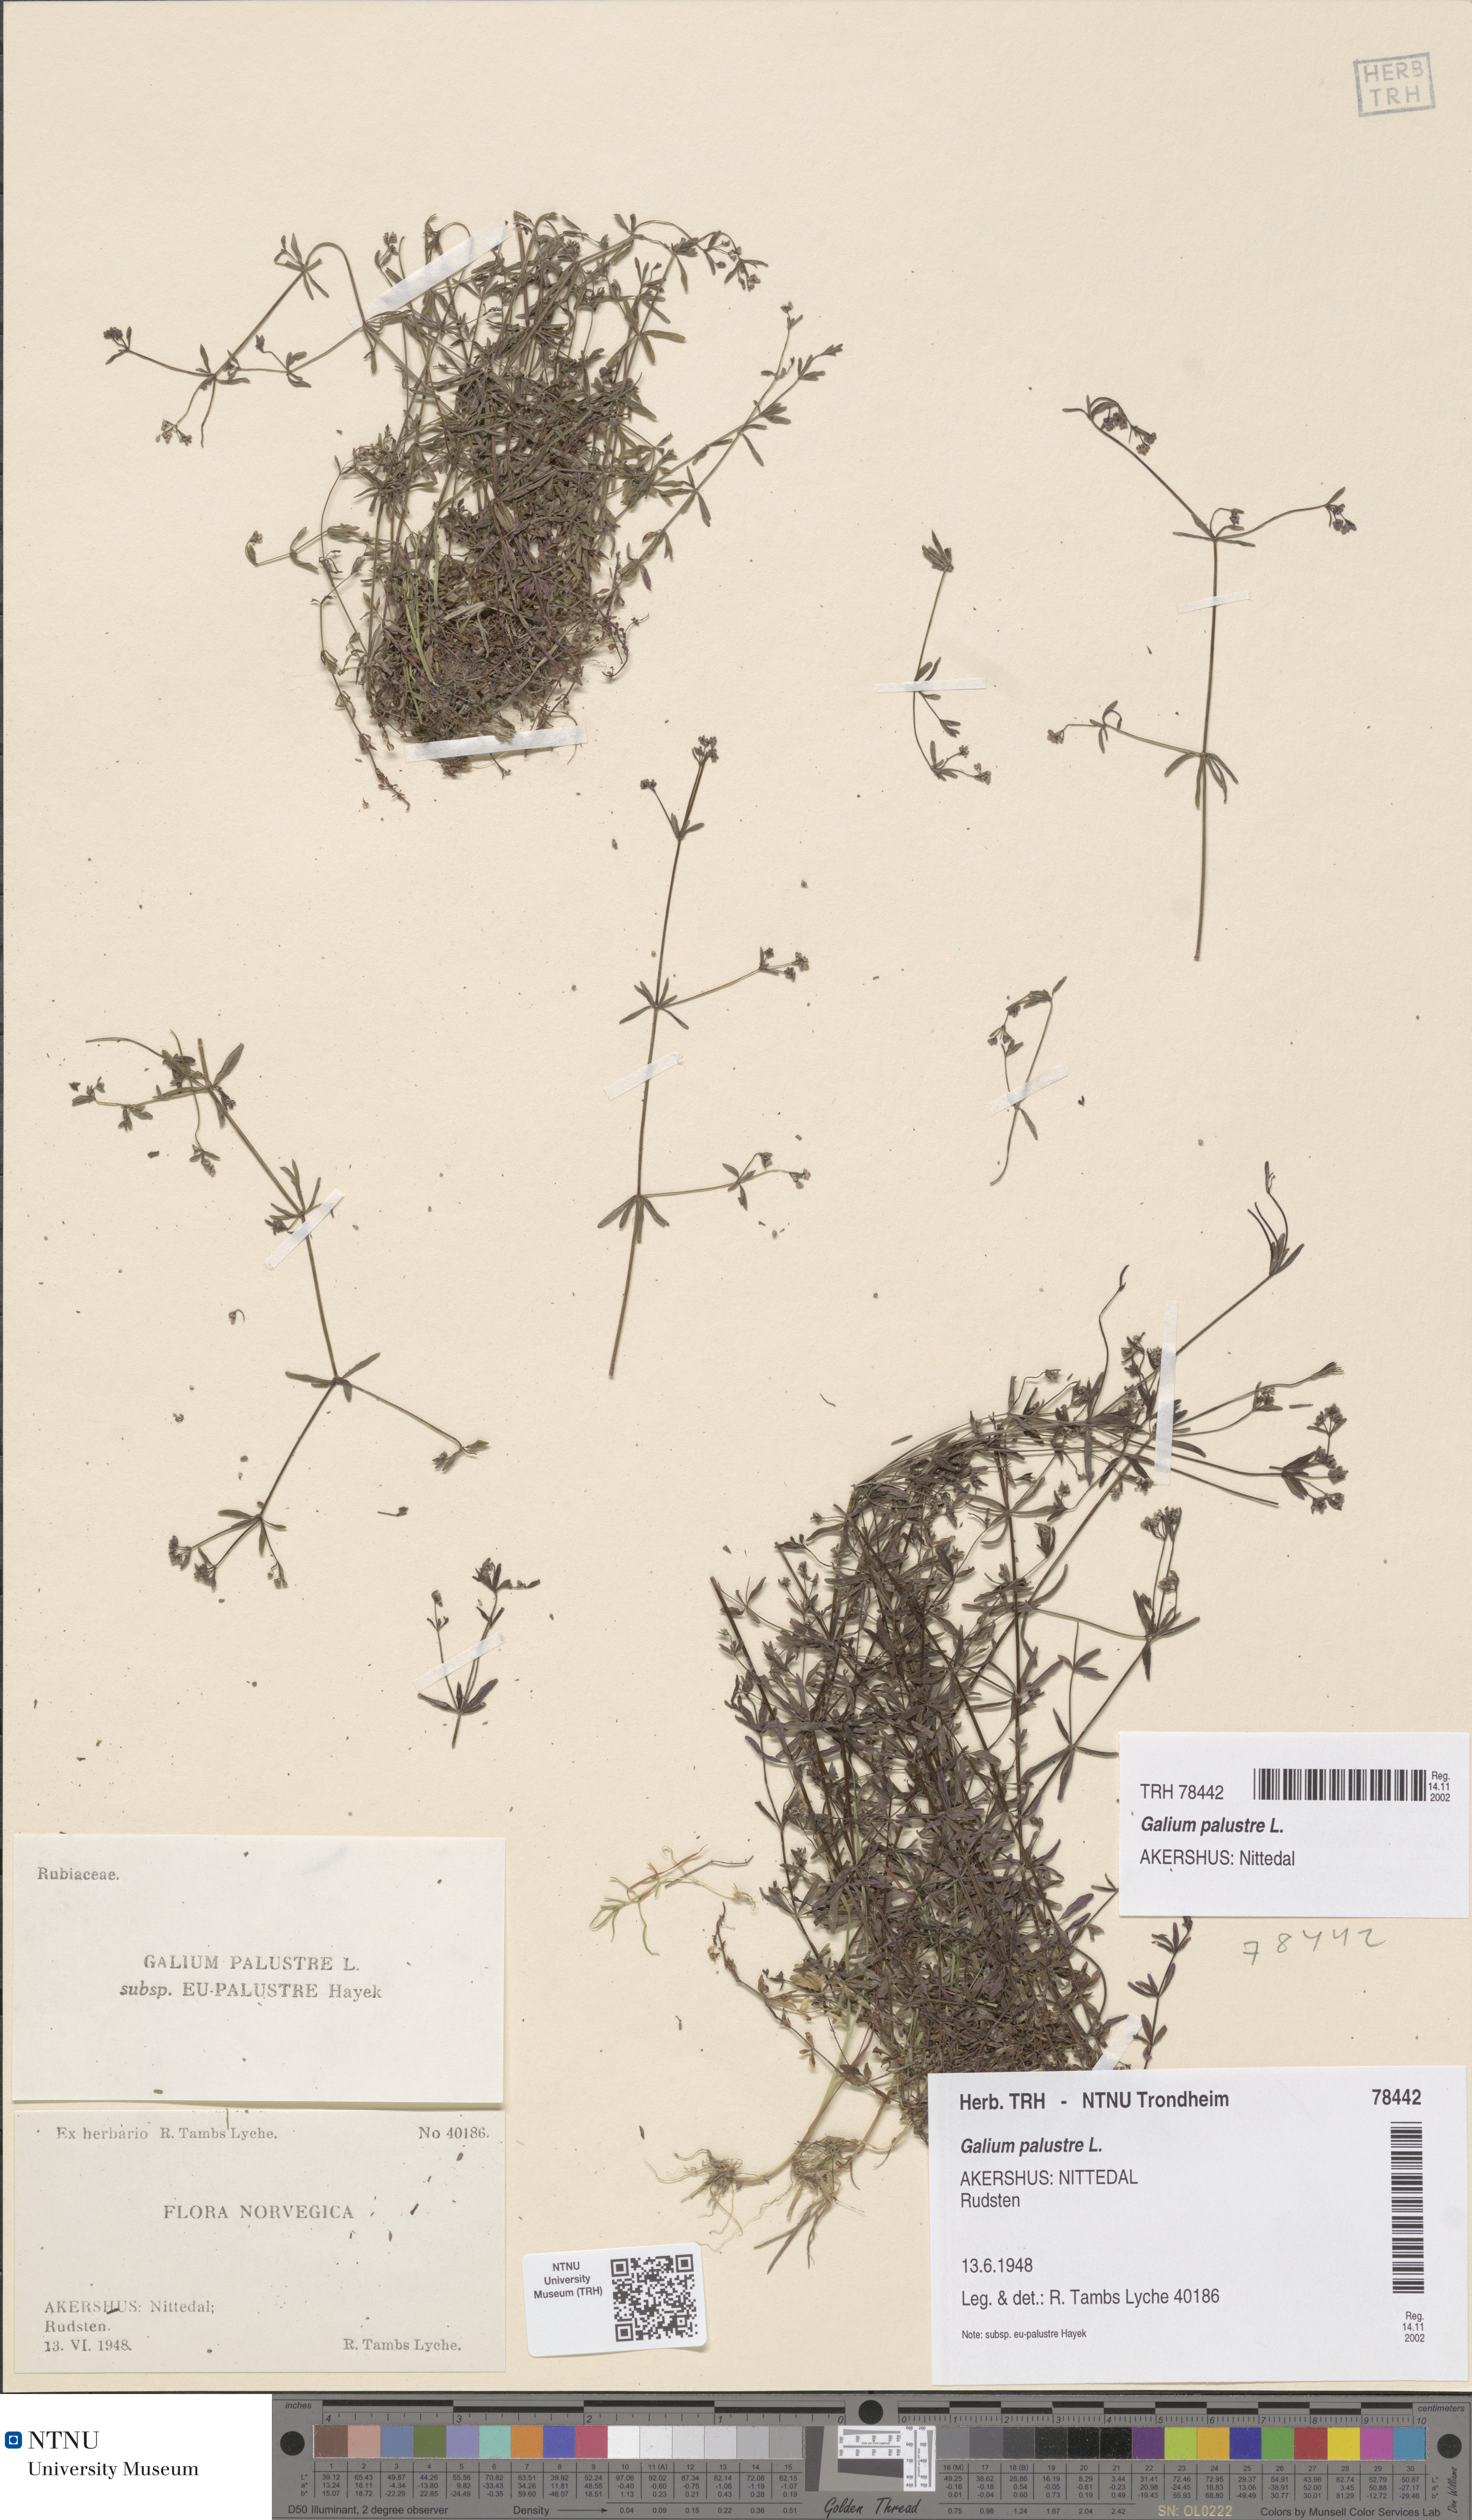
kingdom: Plantae
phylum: Tracheophyta
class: Magnoliopsida
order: Gentianales
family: Rubiaceae
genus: Galium
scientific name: Galium palustre
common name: Common marsh-bedstraw
